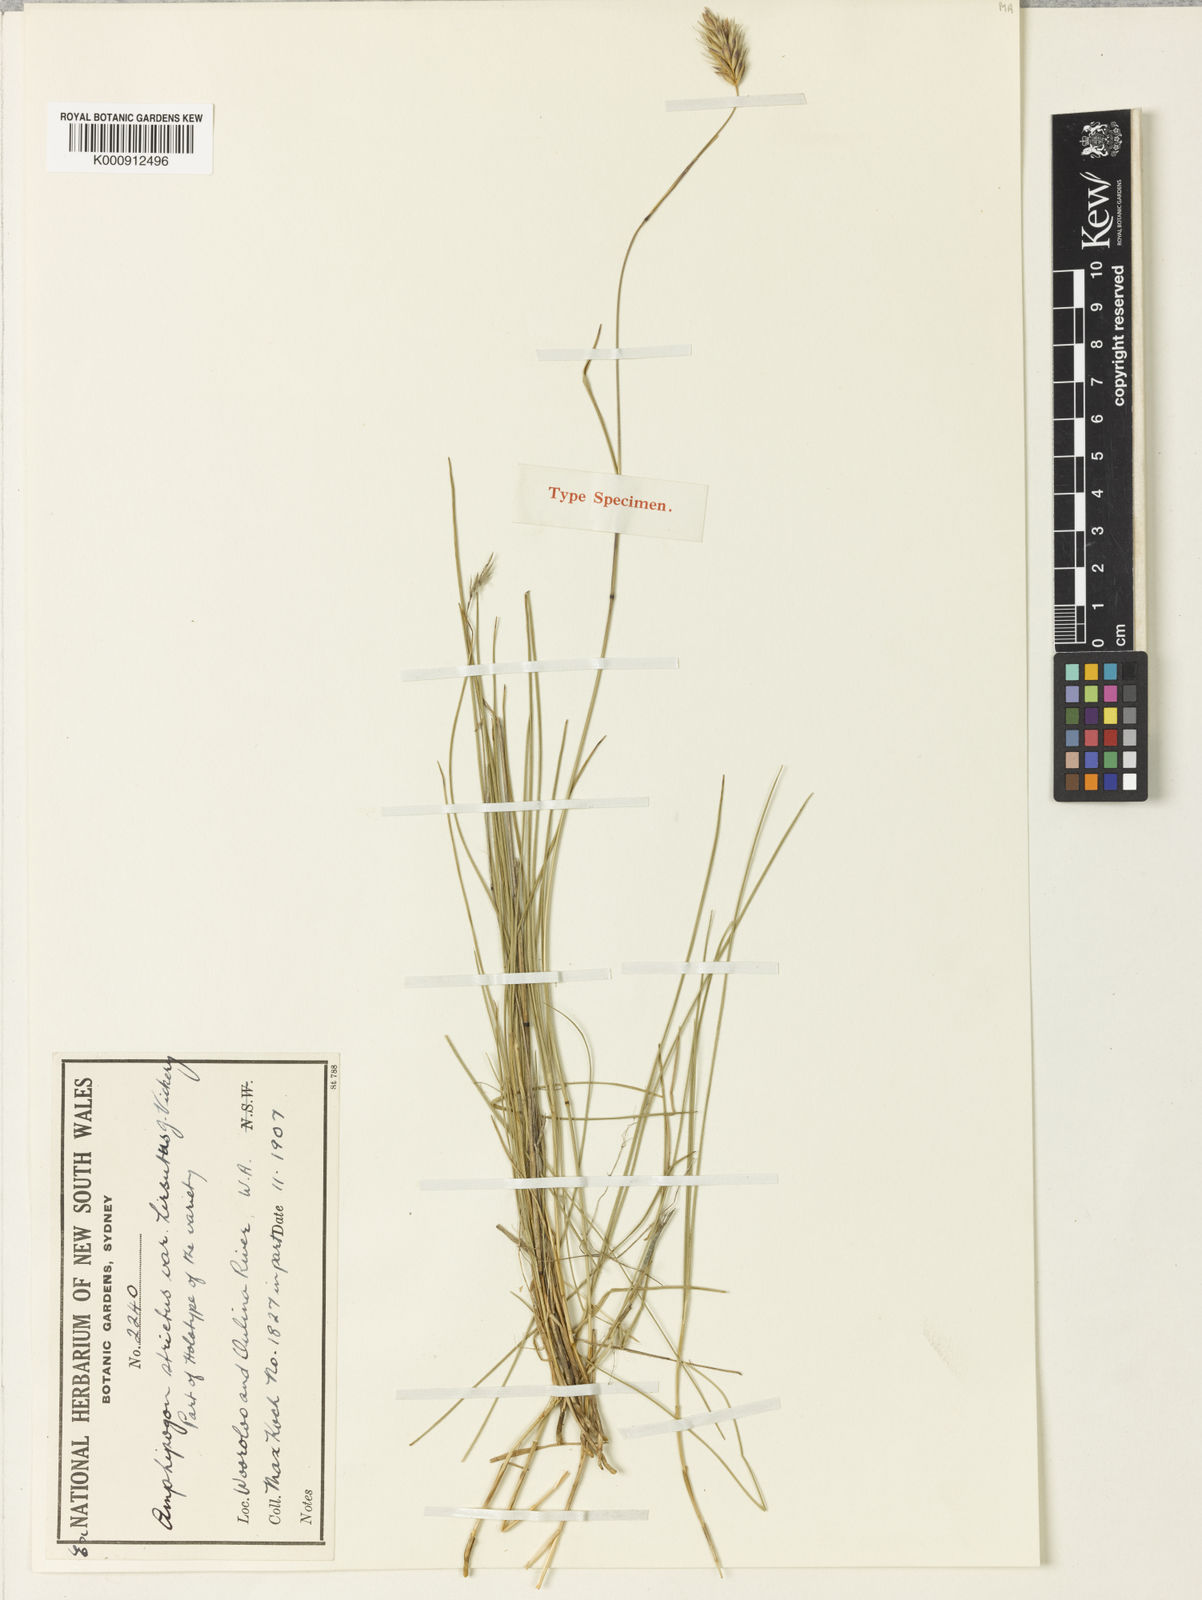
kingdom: Plantae
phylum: Tracheophyta
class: Liliopsida
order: Poales
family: Poaceae
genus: Amphipogon
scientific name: Amphipogon strictus
